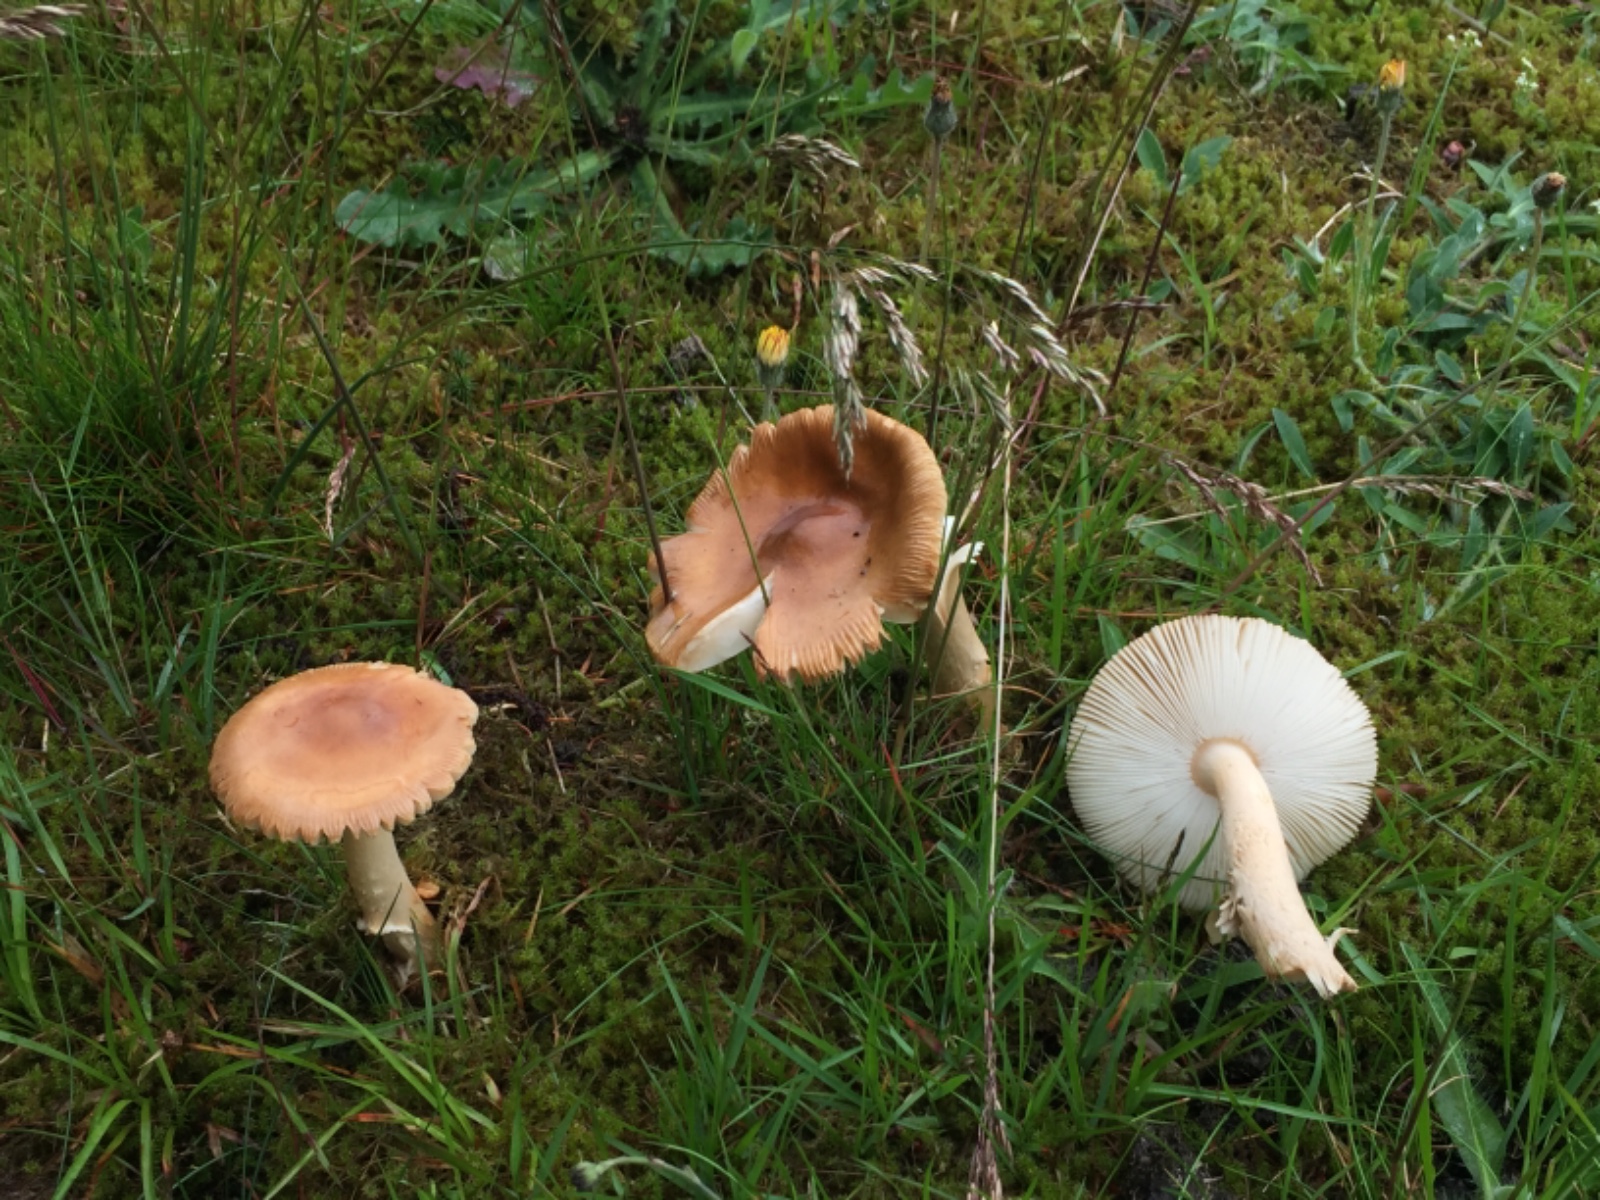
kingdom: Fungi
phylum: Basidiomycota
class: Agaricomycetes
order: Agaricales
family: Amanitaceae
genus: Amanita
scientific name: Amanita fulva
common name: brun kam-fluesvamp
